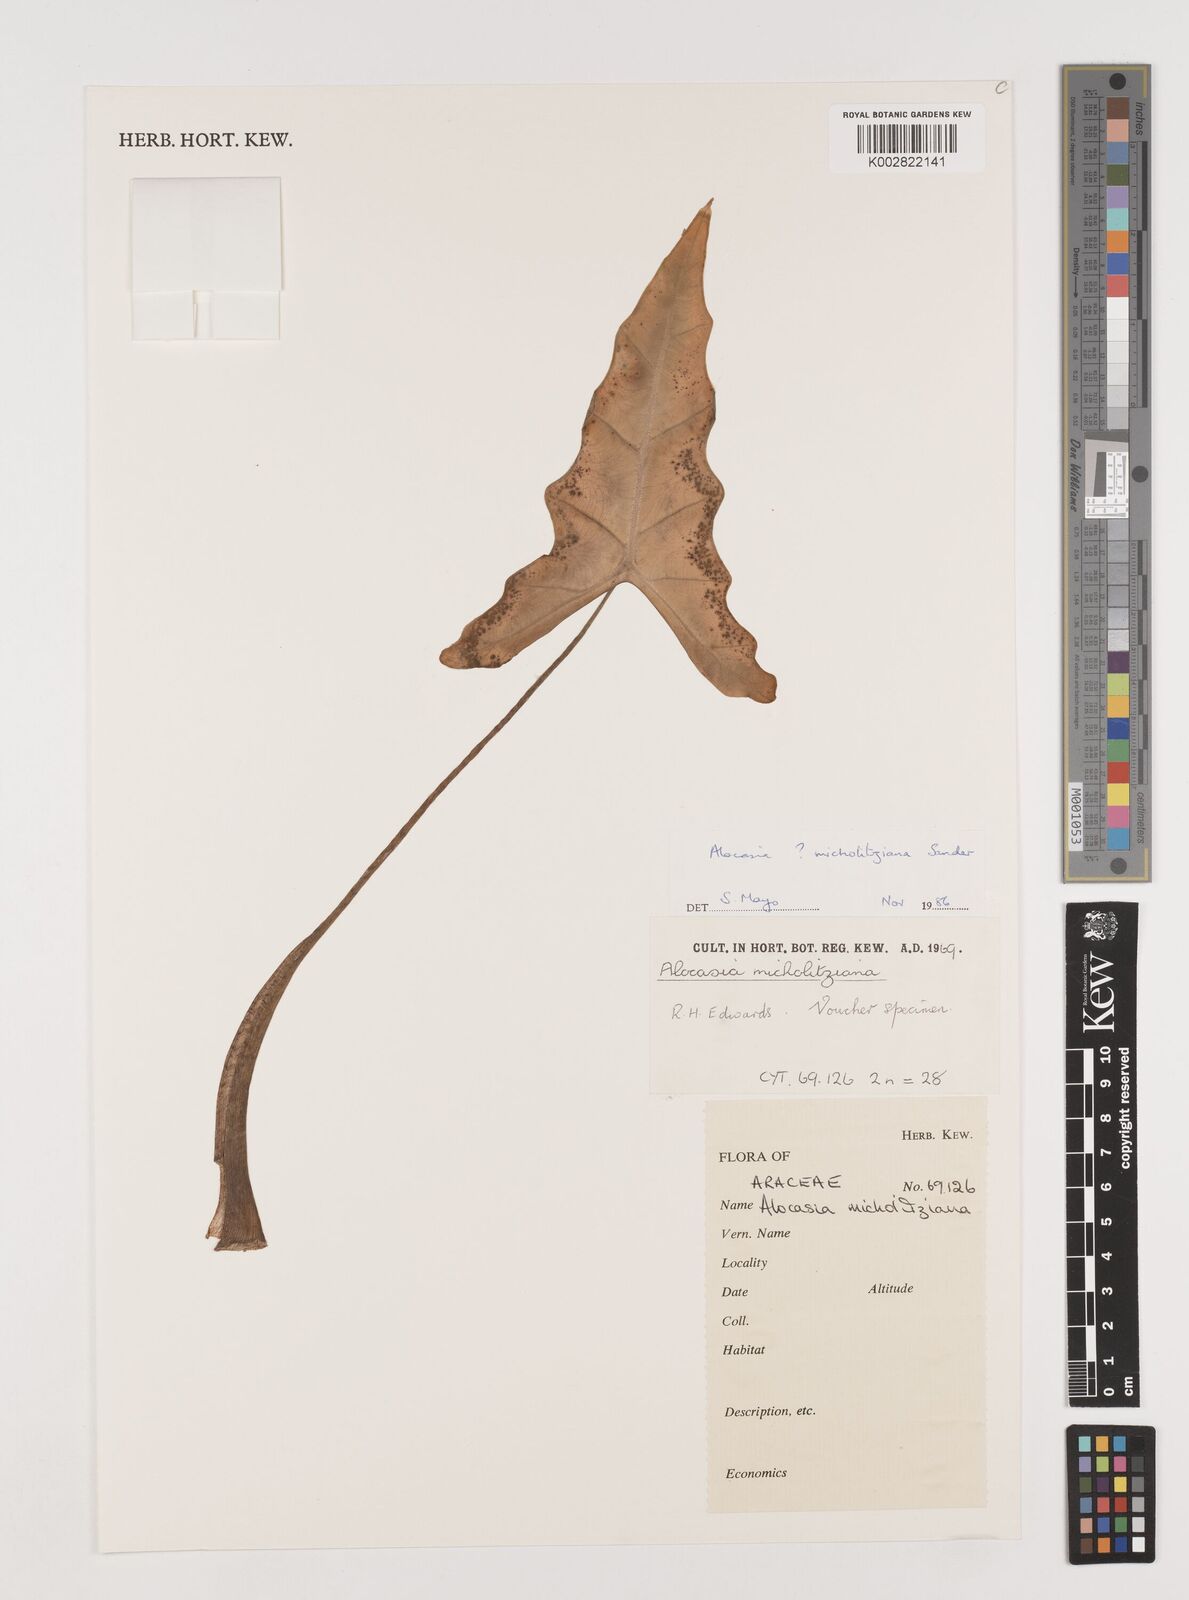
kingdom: Plantae
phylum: Tracheophyta
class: Liliopsida
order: Alismatales
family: Araceae
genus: Alocasia
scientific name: Alocasia micholitziana
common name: Green-velvet alocasia
